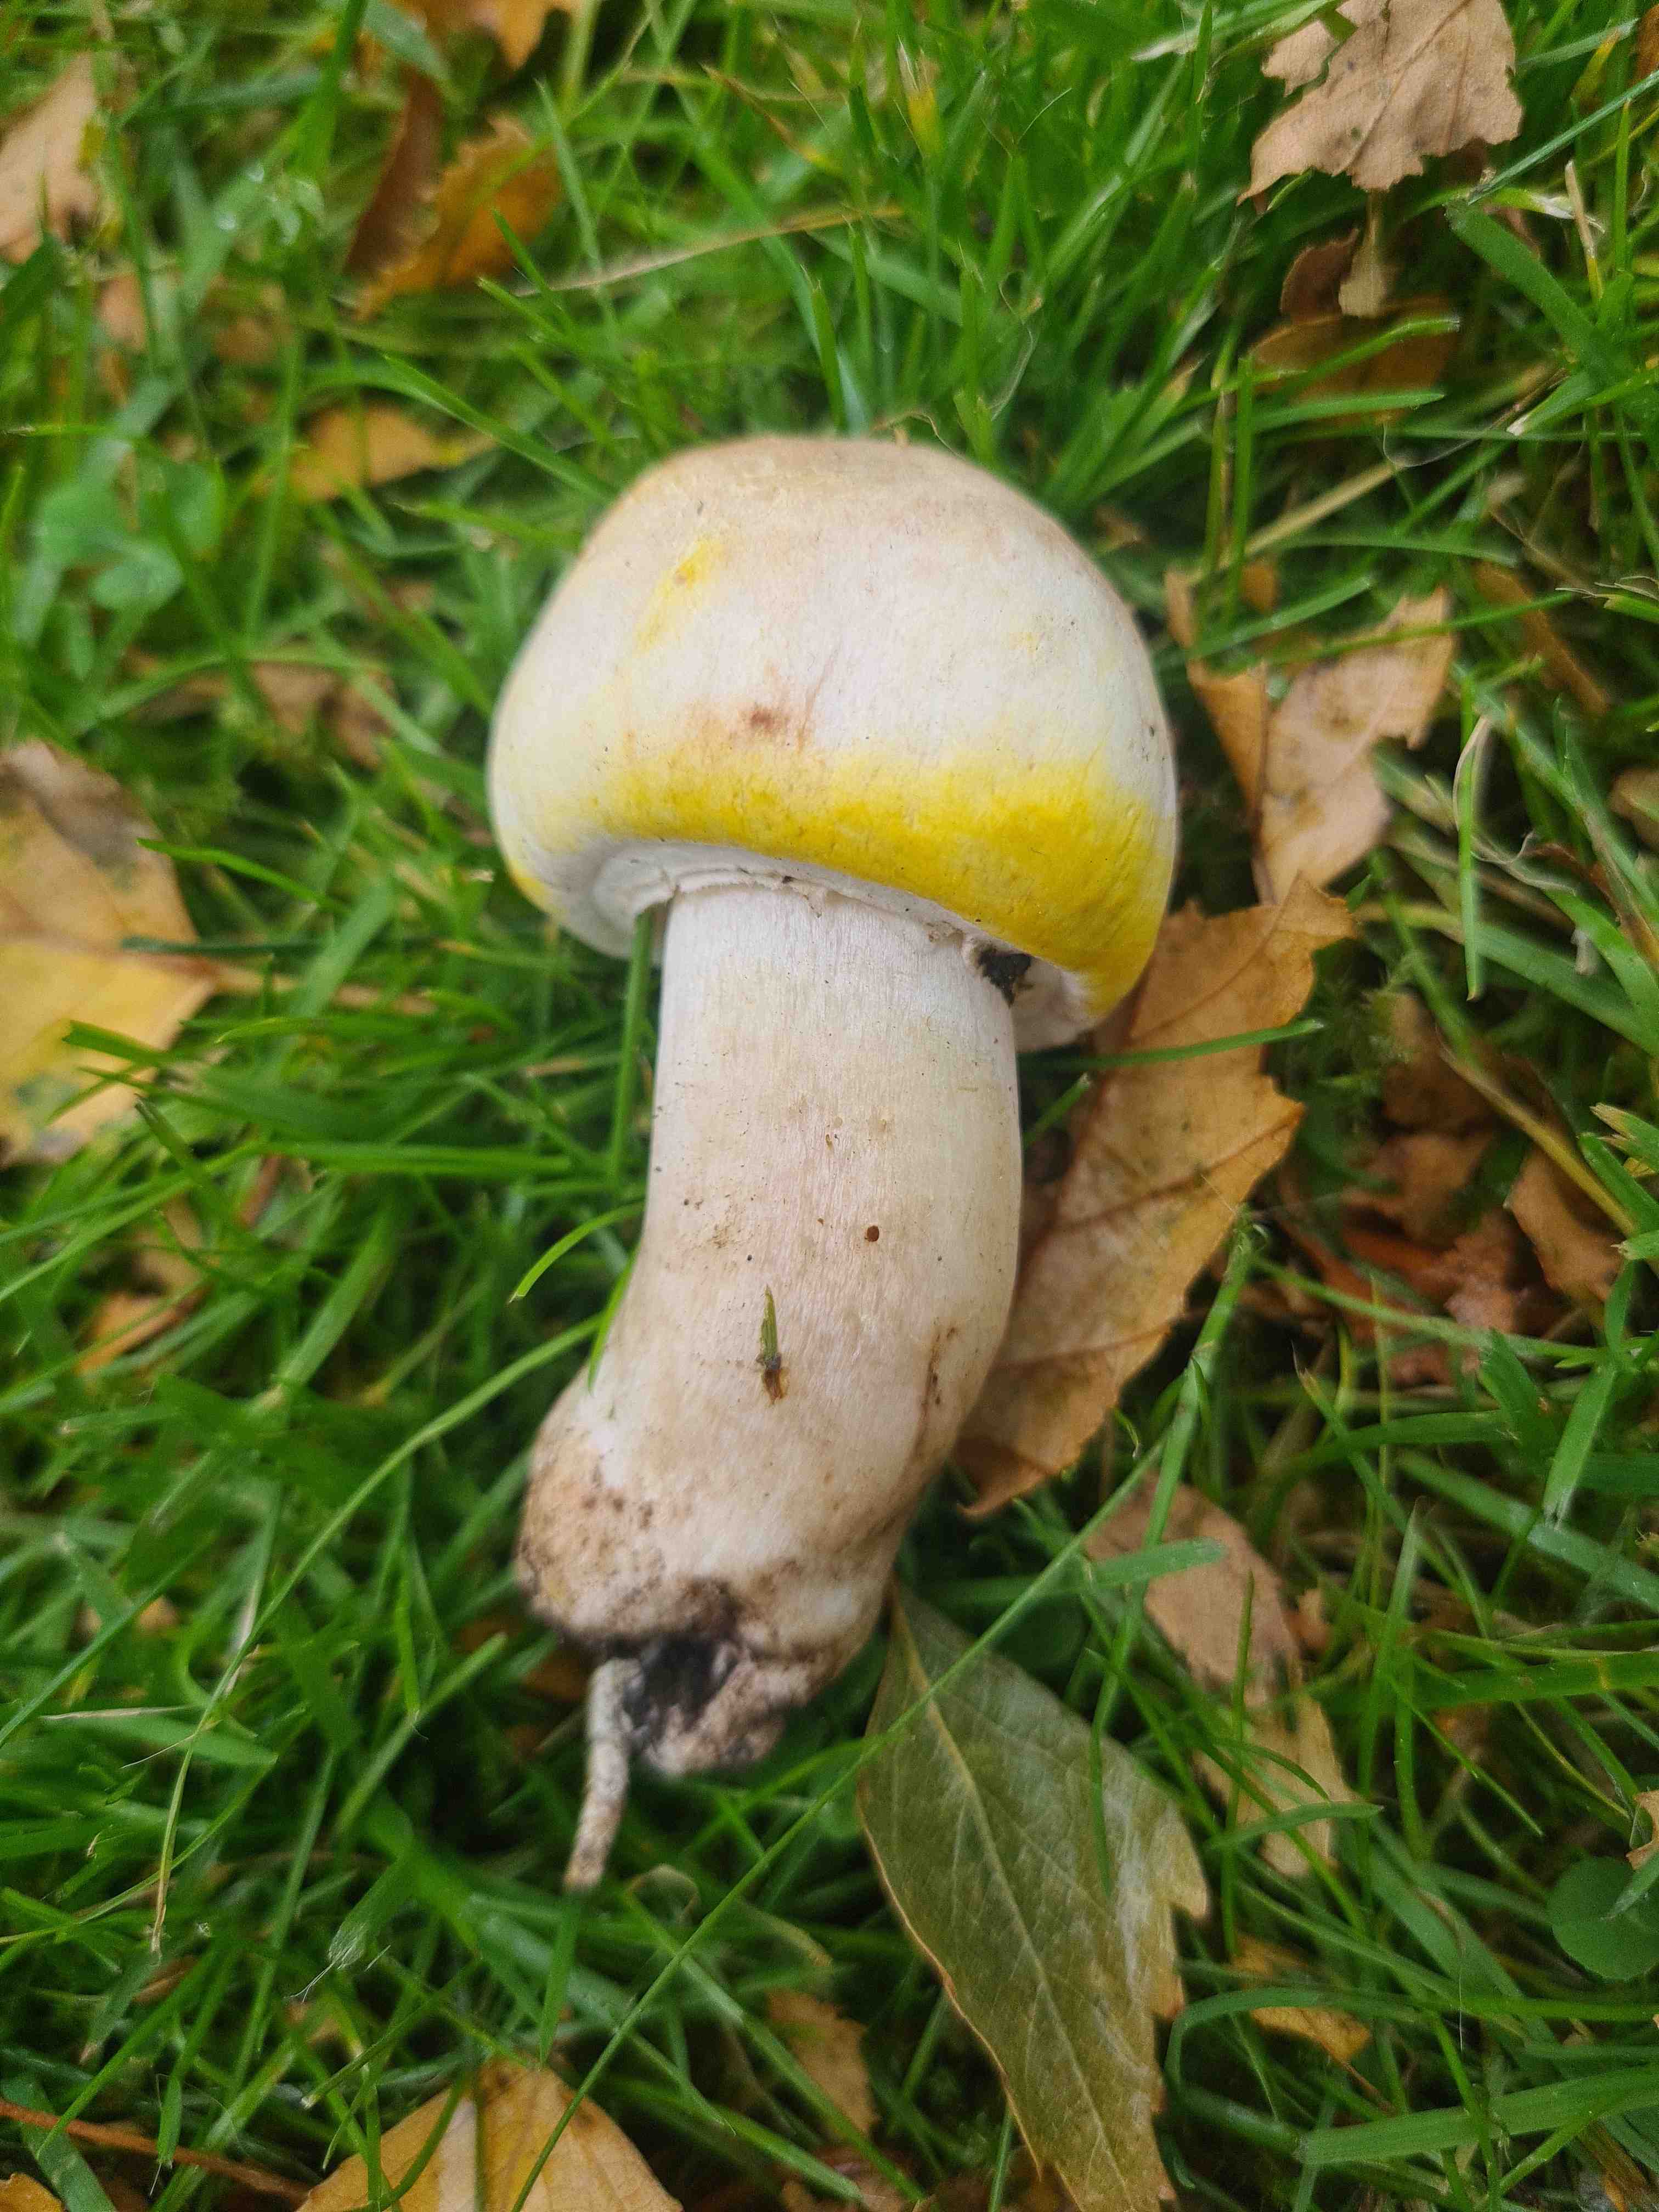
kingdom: Fungi
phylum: Basidiomycota
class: Agaricomycetes
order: Agaricales
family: Agaricaceae
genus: Agaricus
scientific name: Agaricus xanthodermus
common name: karbol-champignon
